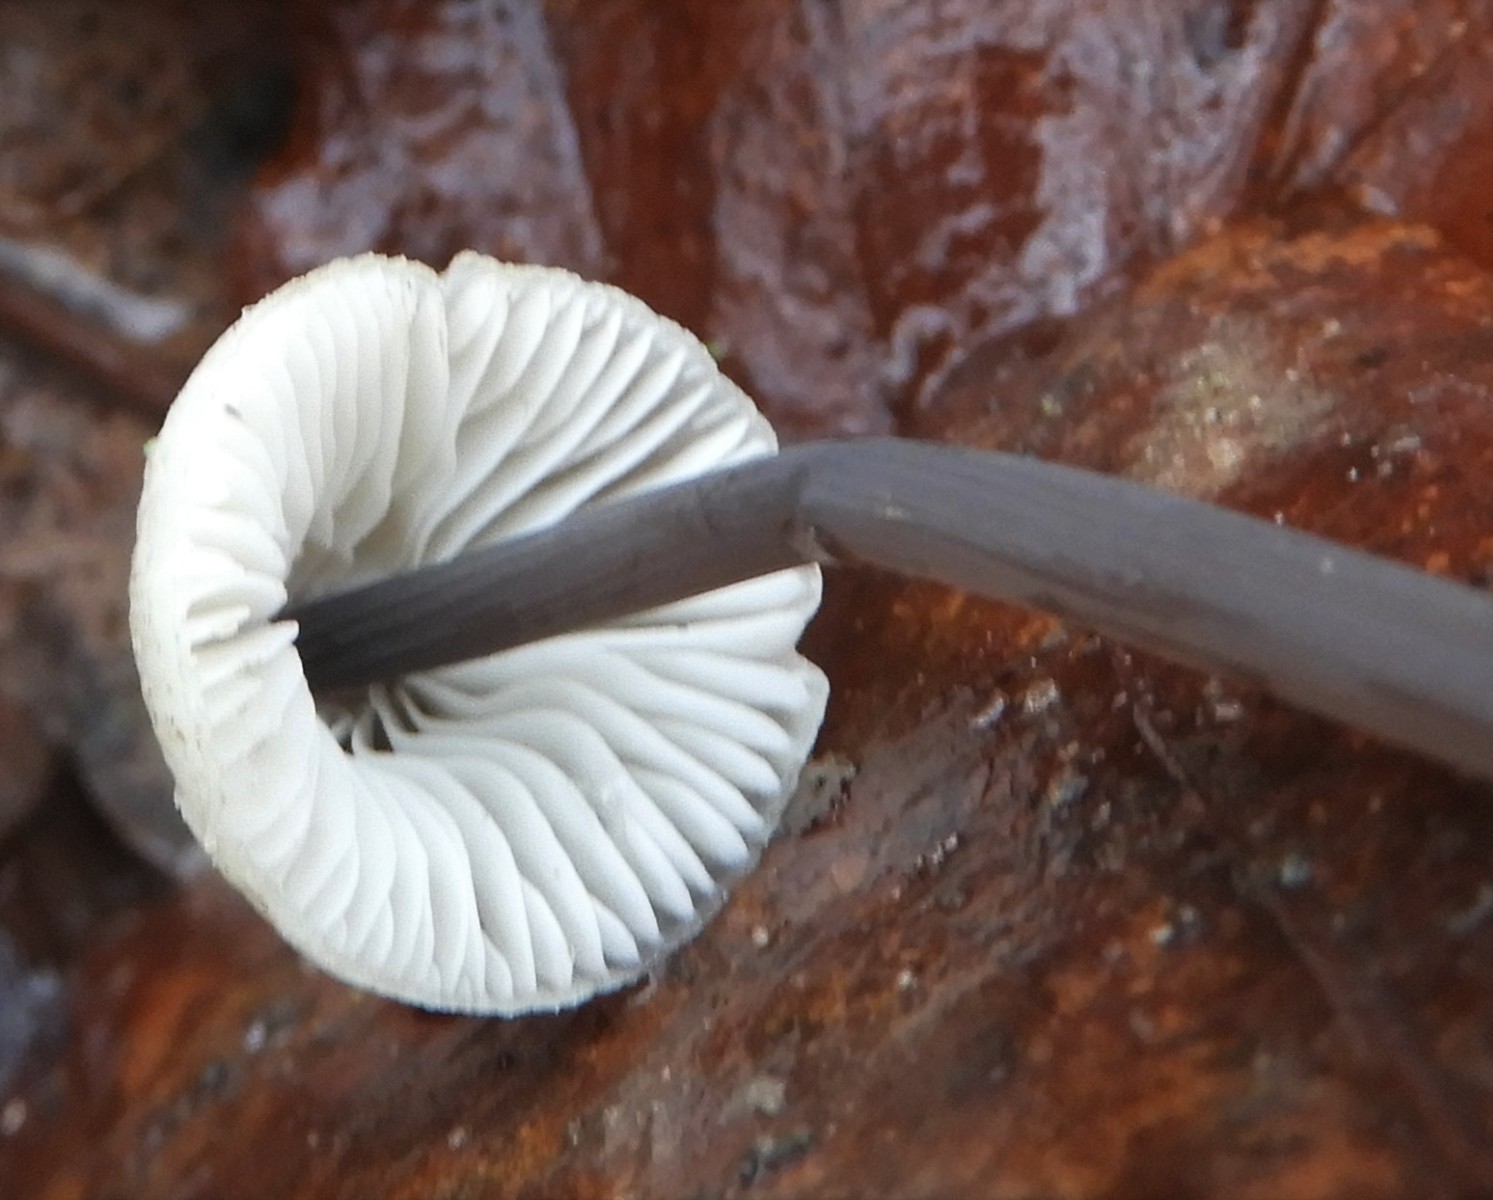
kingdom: Fungi
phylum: Basidiomycota
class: Agaricomycetes
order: Agaricales
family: Mycenaceae
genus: Mycena
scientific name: Mycena arcangeliana
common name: oliven-huesvamp
